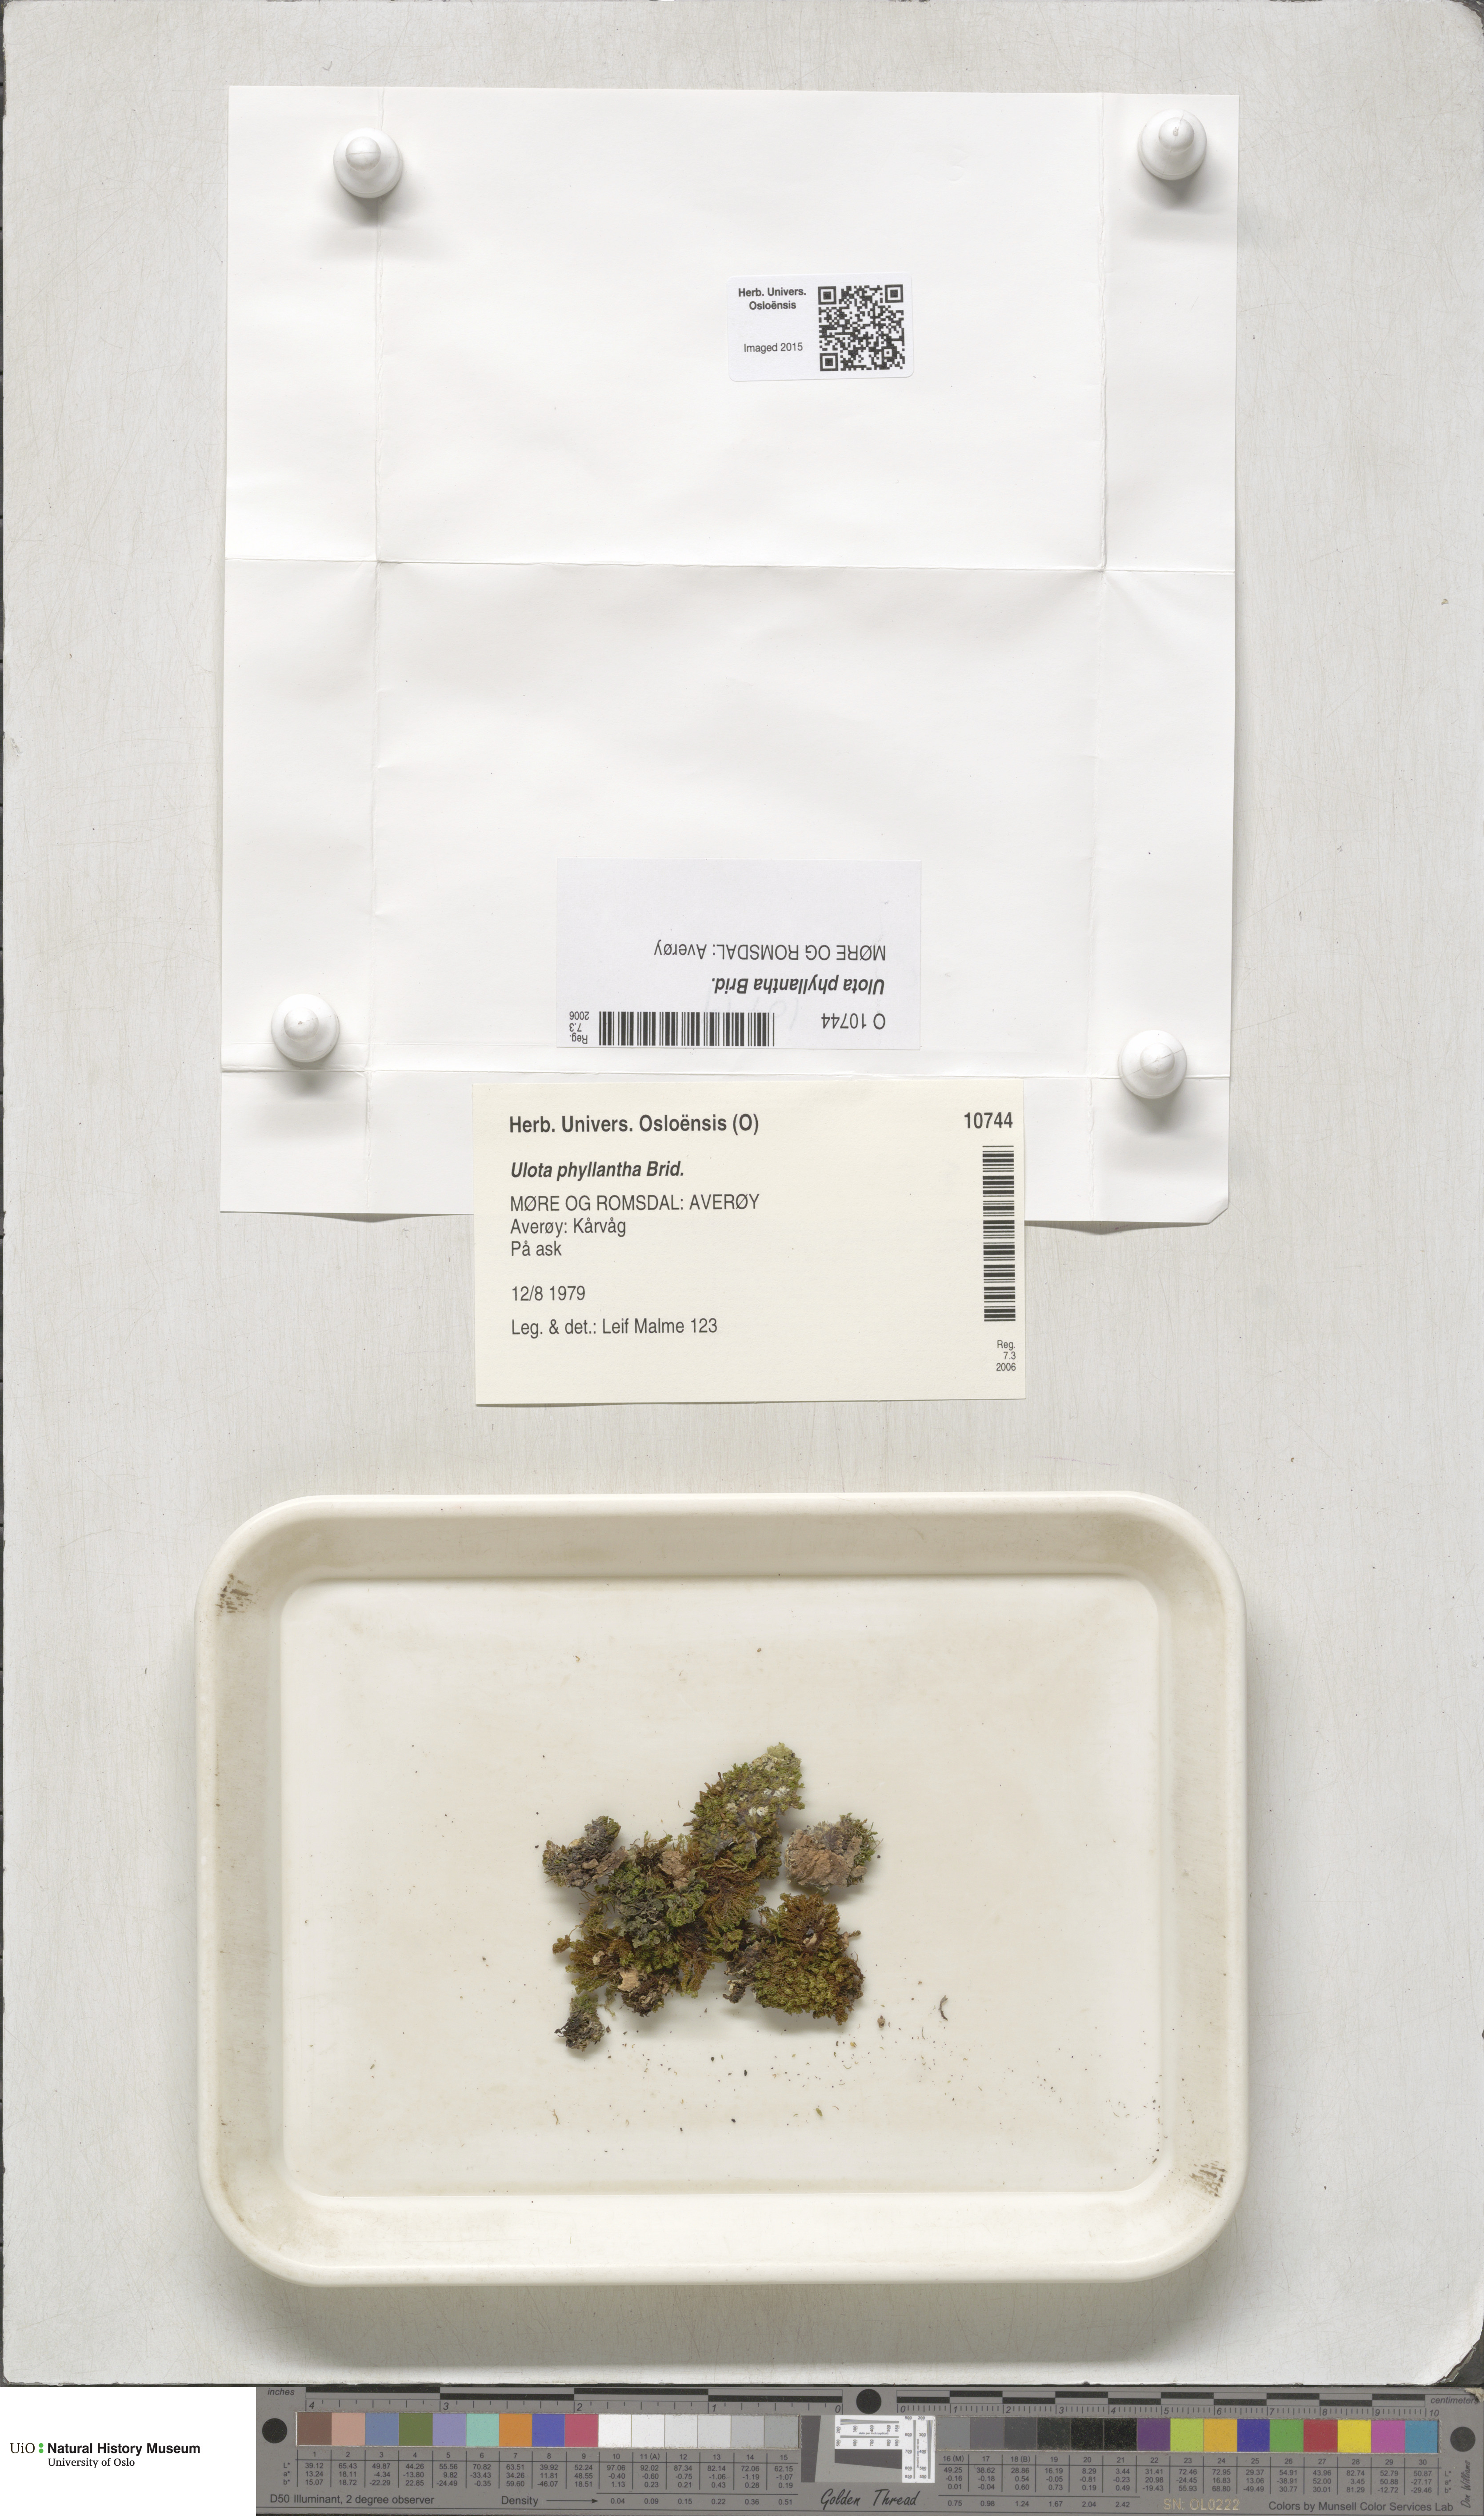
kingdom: Plantae
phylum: Bryophyta
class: Bryopsida
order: Orthotrichales
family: Orthotrichaceae
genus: Plenogemma
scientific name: Plenogemma phyllantha
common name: Frizzled pincushion
